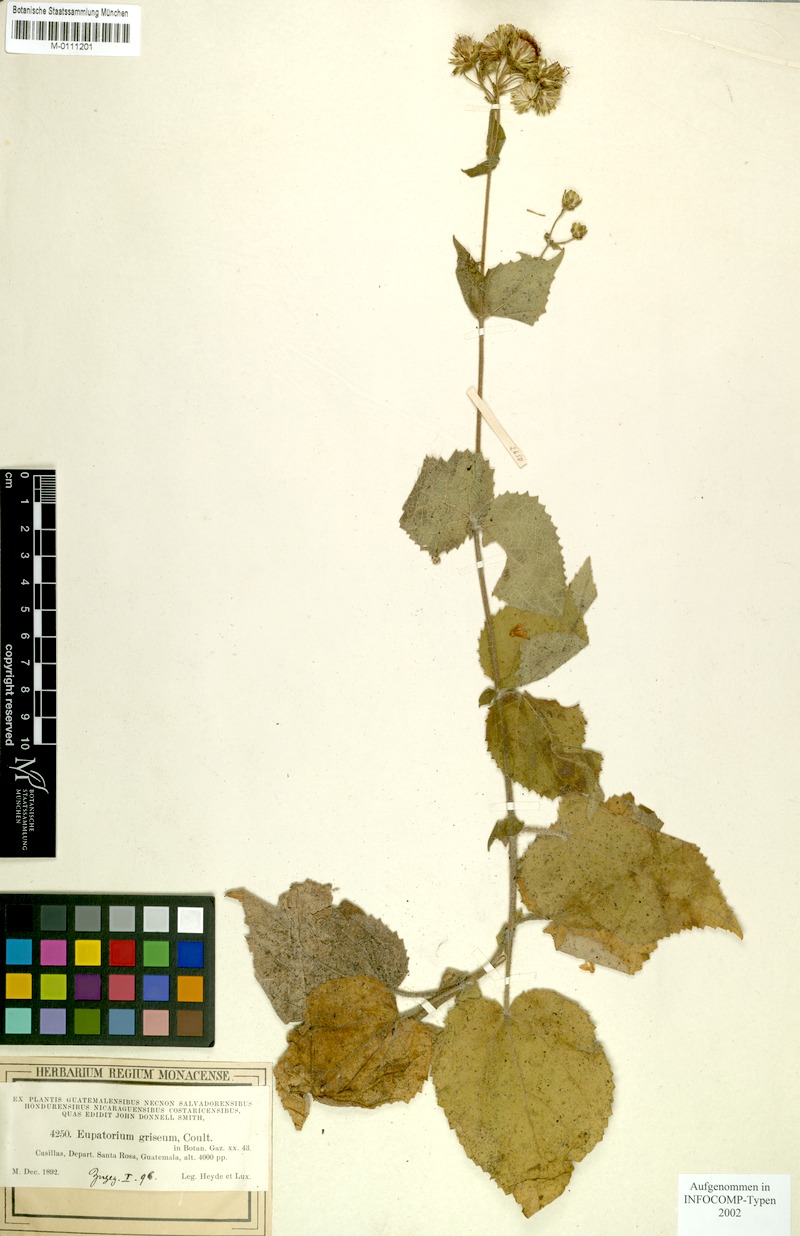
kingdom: Plantae
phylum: Tracheophyta
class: Magnoliopsida
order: Asterales
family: Asteraceae
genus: Peteravenia
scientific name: Peteravenia grisea
